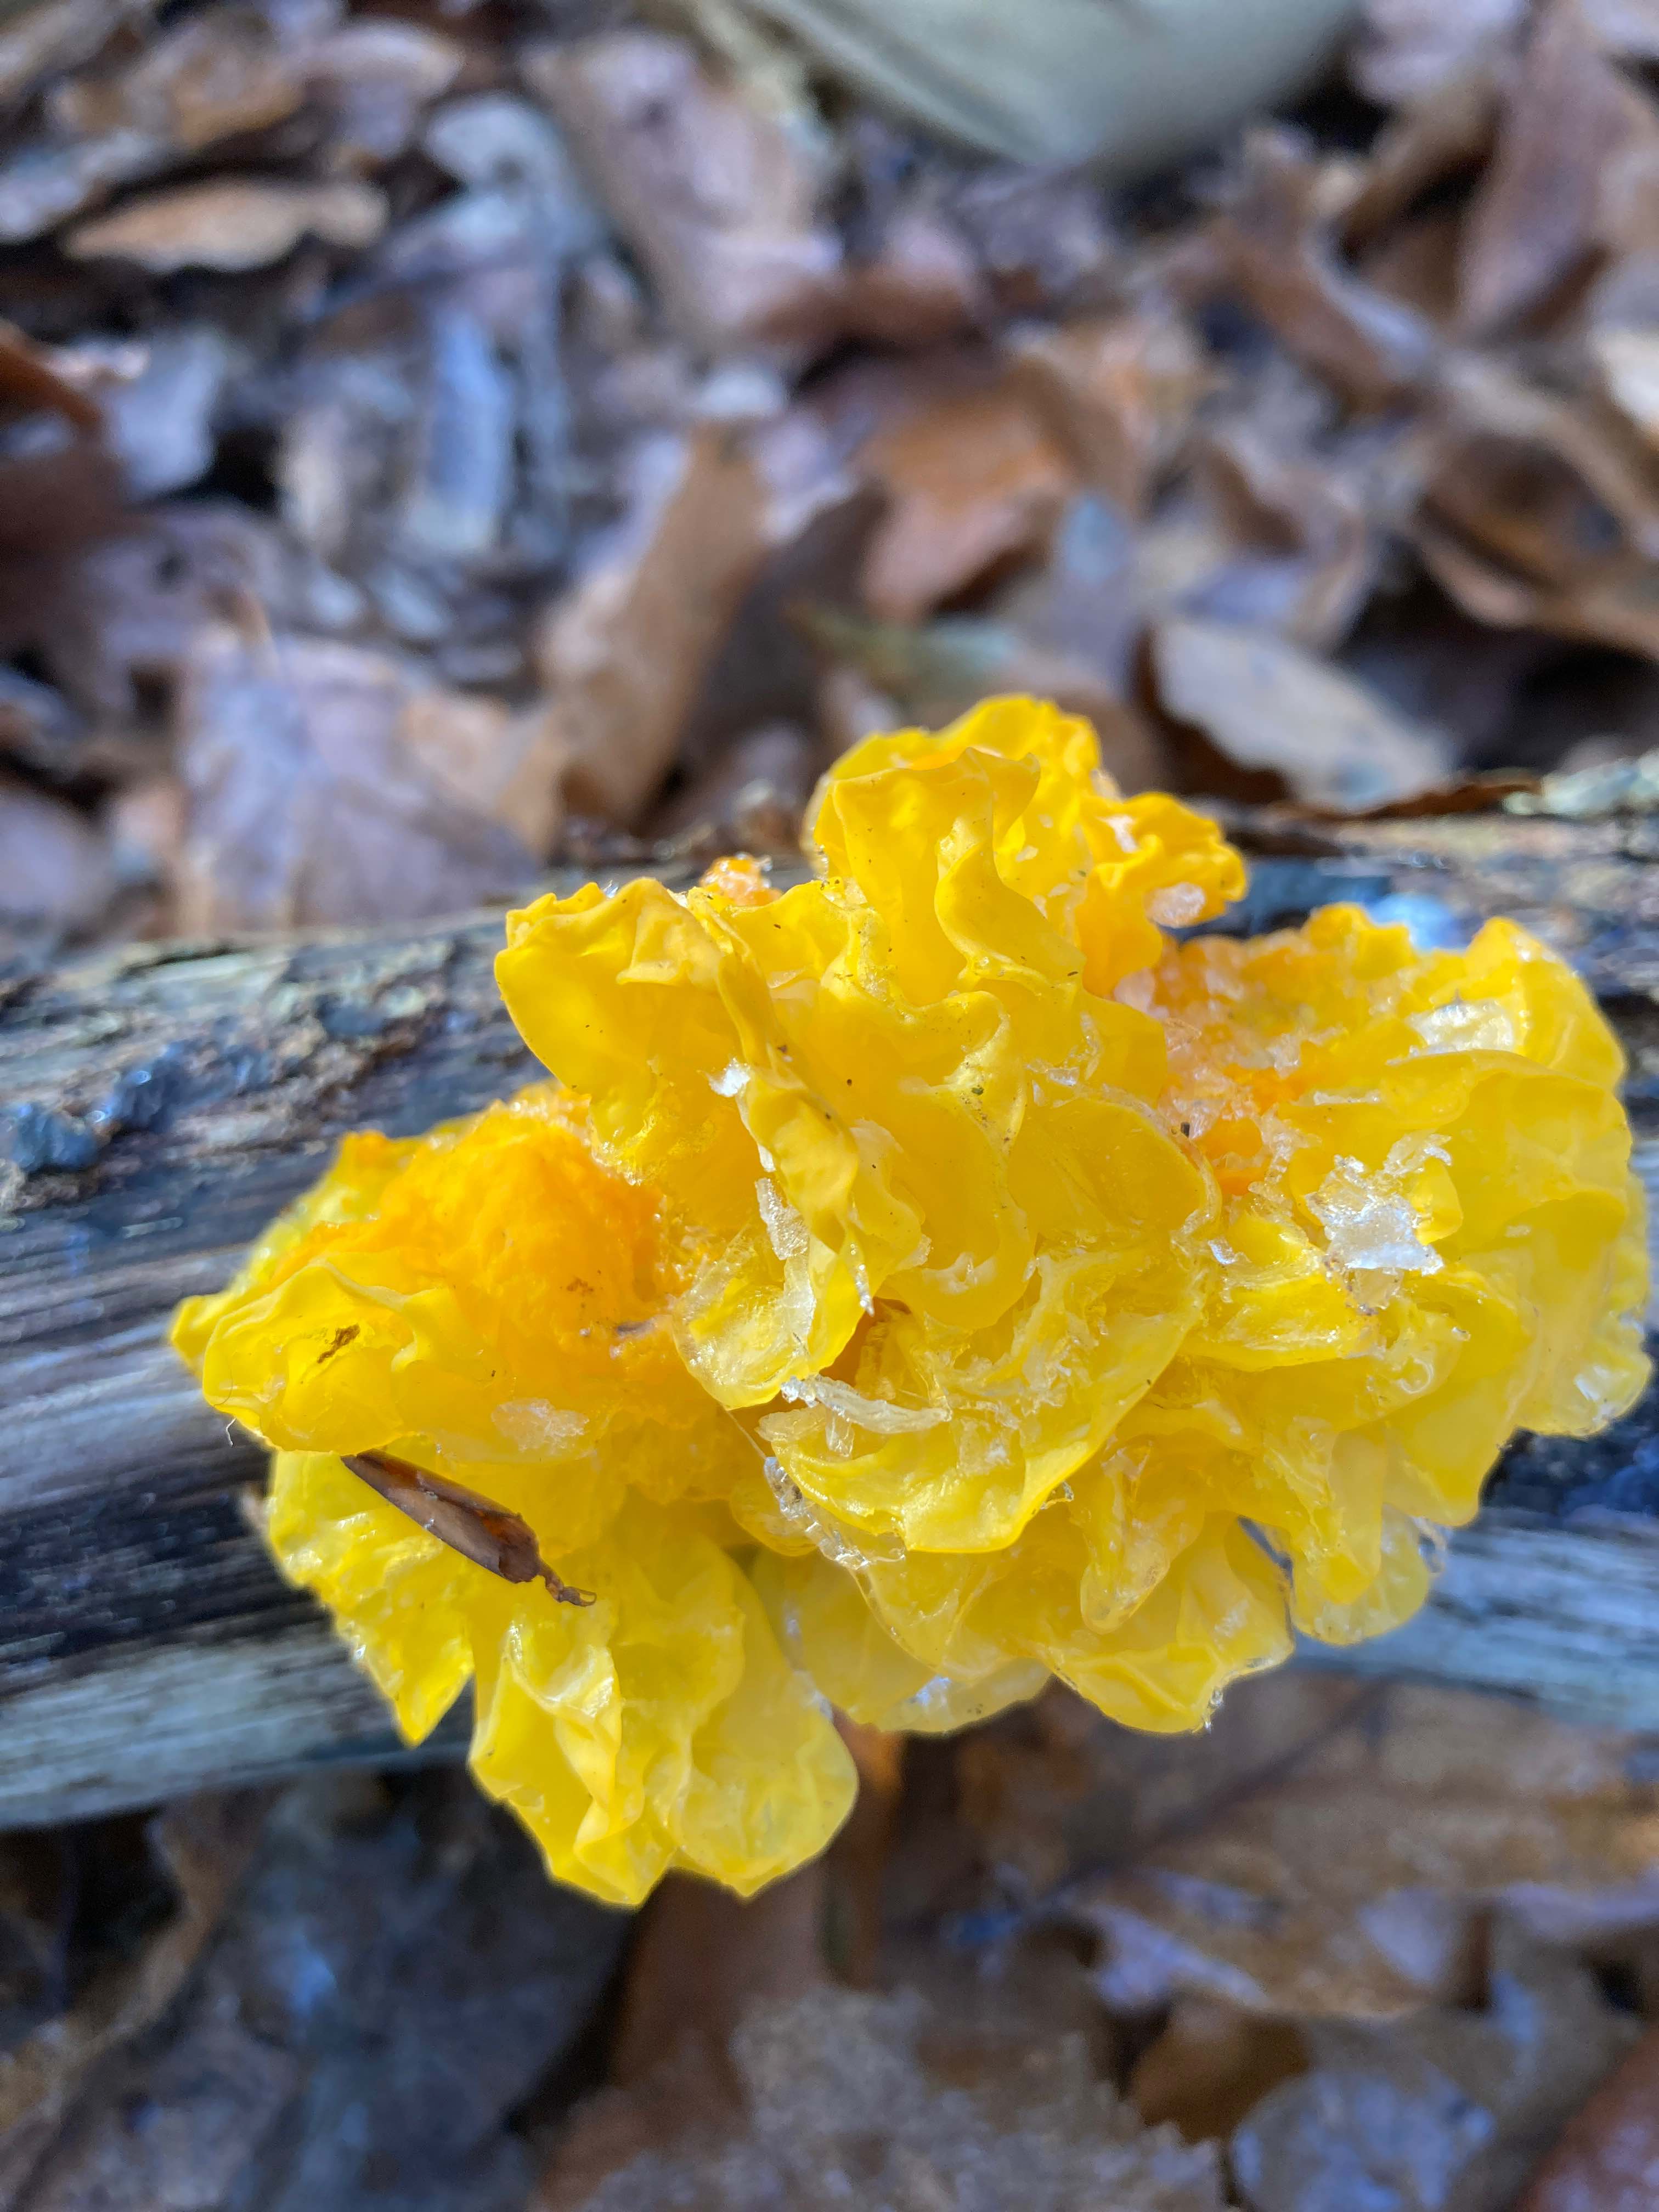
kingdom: Fungi
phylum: Basidiomycota
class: Tremellomycetes
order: Tremellales
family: Tremellaceae
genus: Tremella
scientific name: Tremella mesenterica
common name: gul bævresvamp
